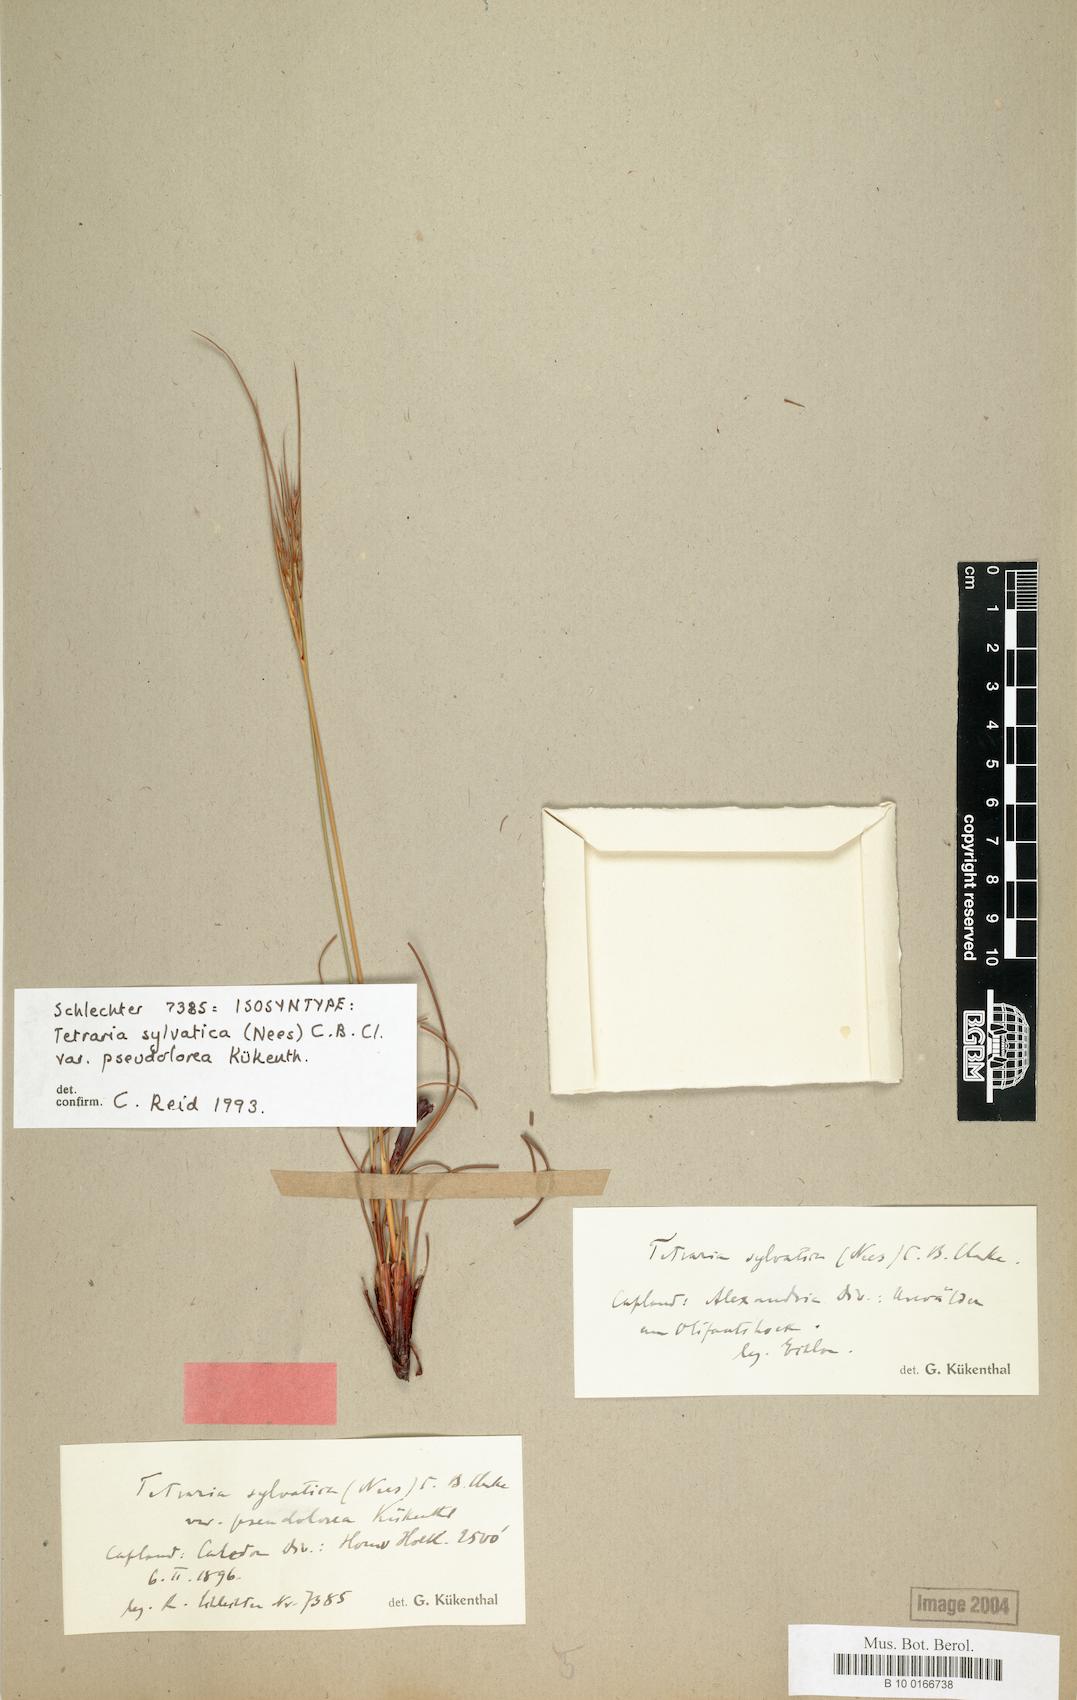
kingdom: Plantae
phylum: Tracheophyta
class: Liliopsida
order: Poales
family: Cyperaceae
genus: Schoenus
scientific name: Schoenus pseudoloreus
